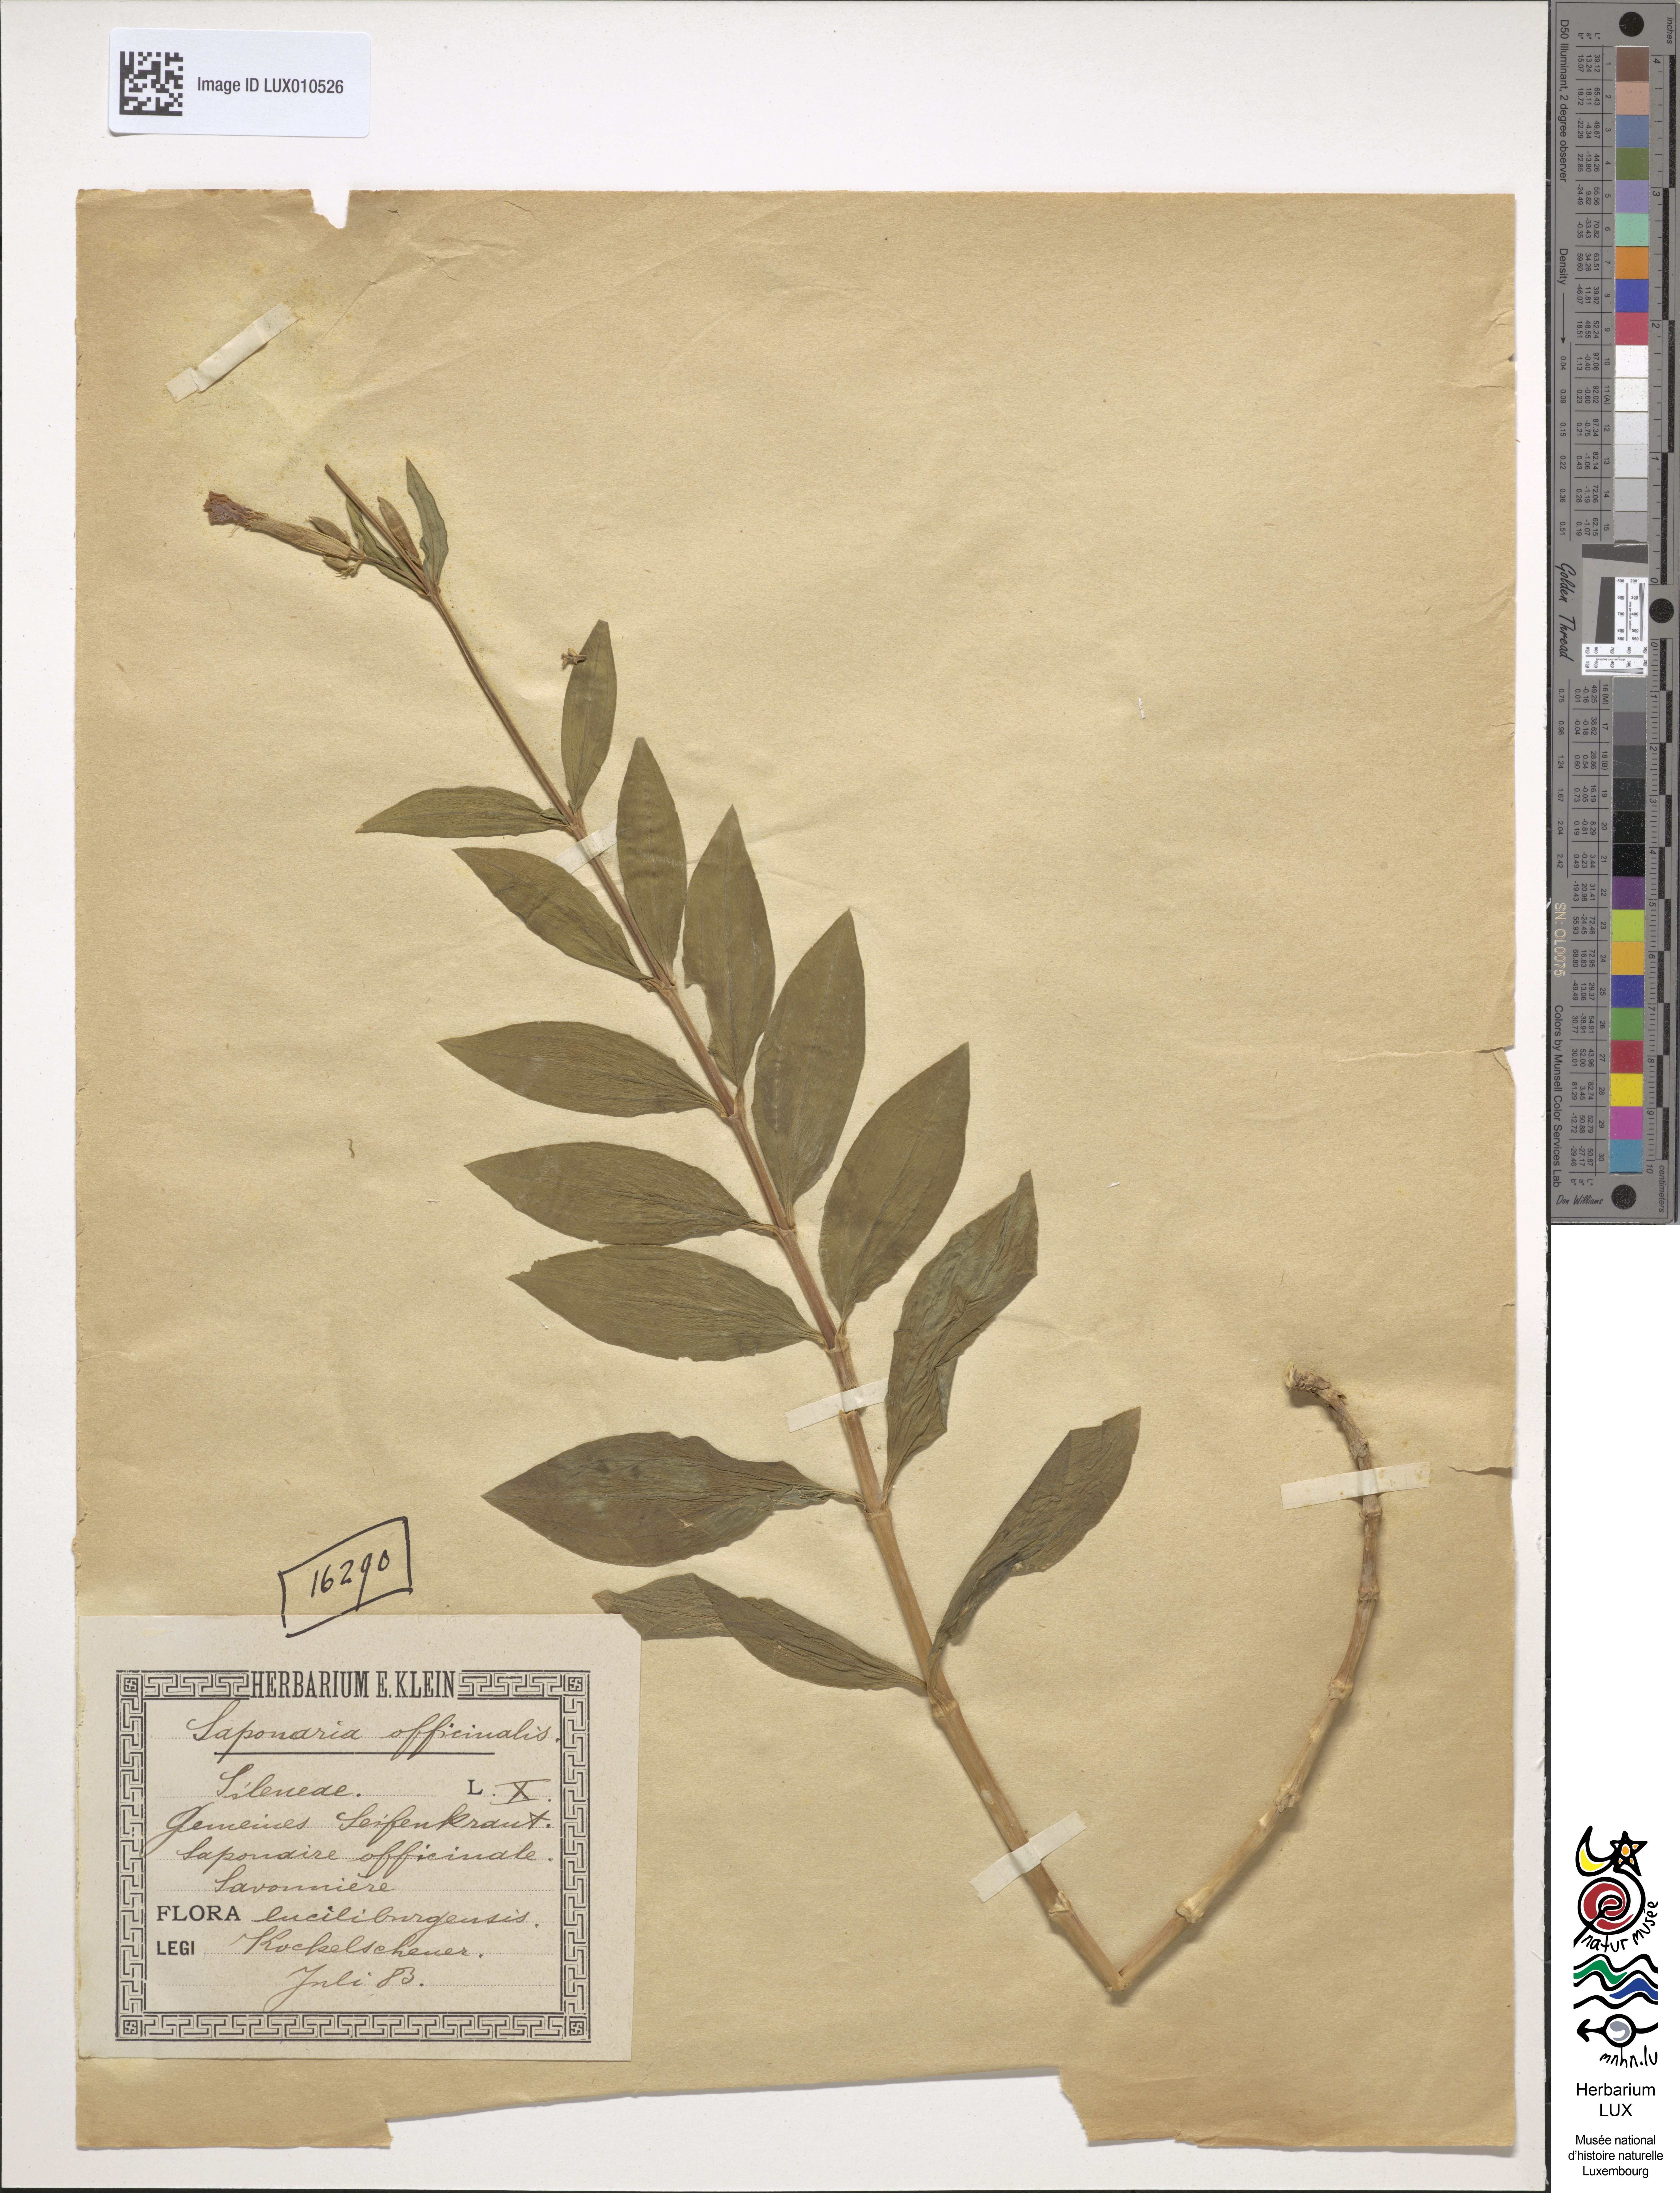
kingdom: Plantae
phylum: Tracheophyta
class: Magnoliopsida
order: Caryophyllales
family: Caryophyllaceae
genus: Saponaria
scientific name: Saponaria officinalis
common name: Soapwort
